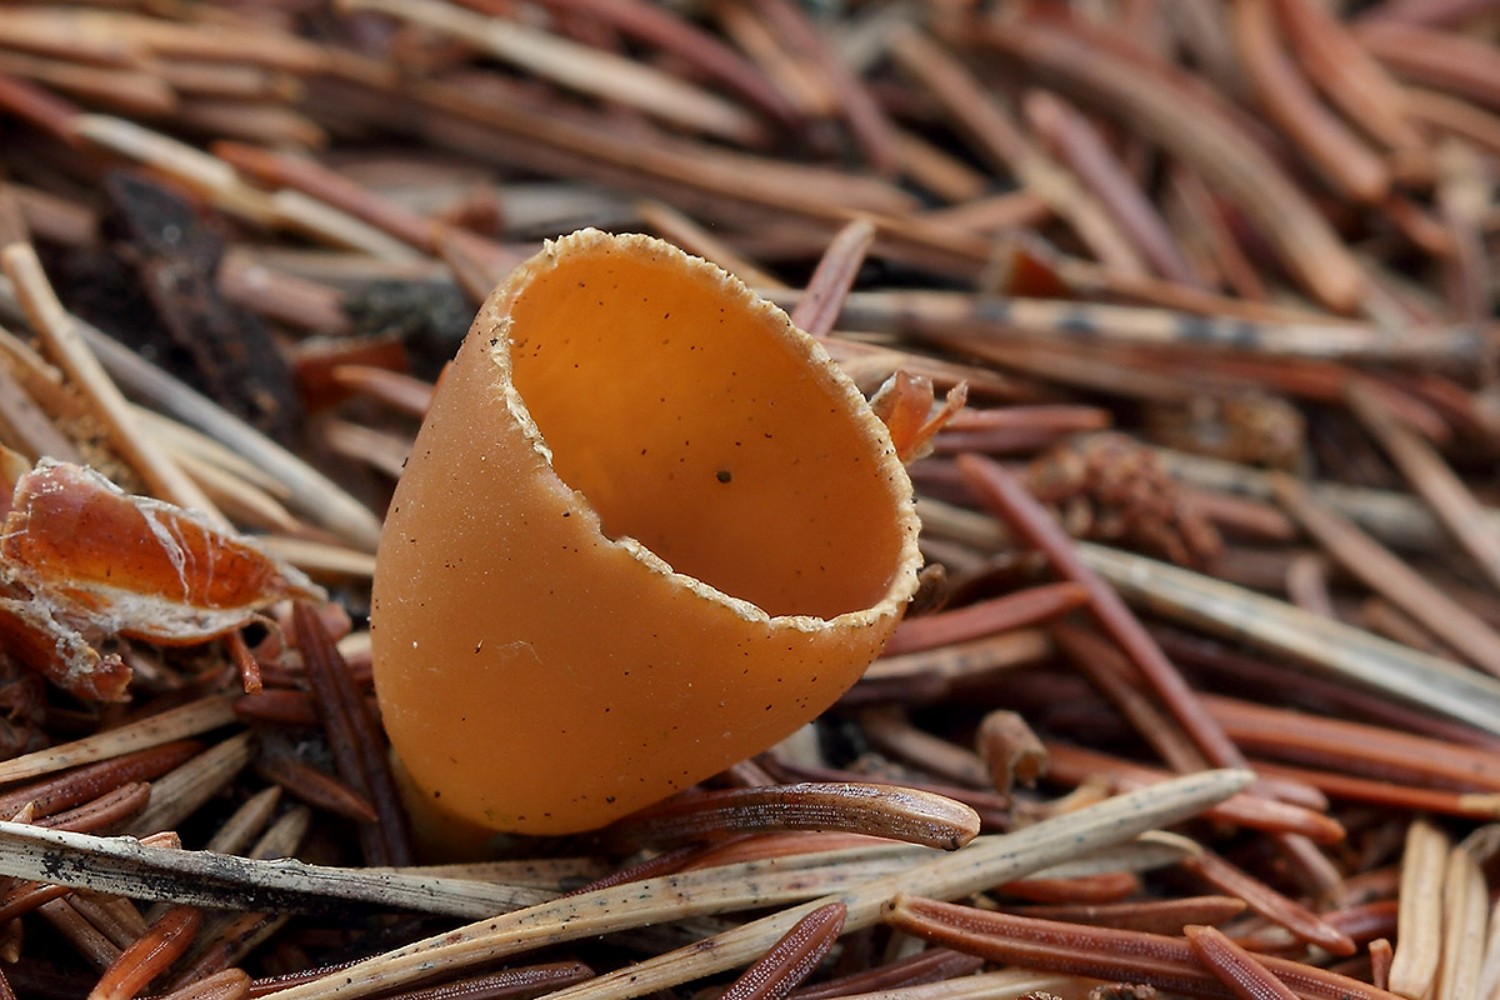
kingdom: Fungi
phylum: Ascomycota
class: Pezizomycetes
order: Pezizales
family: Pyronemataceae
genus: Geopyxis
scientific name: Geopyxis carbonaria
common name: kulbæger
